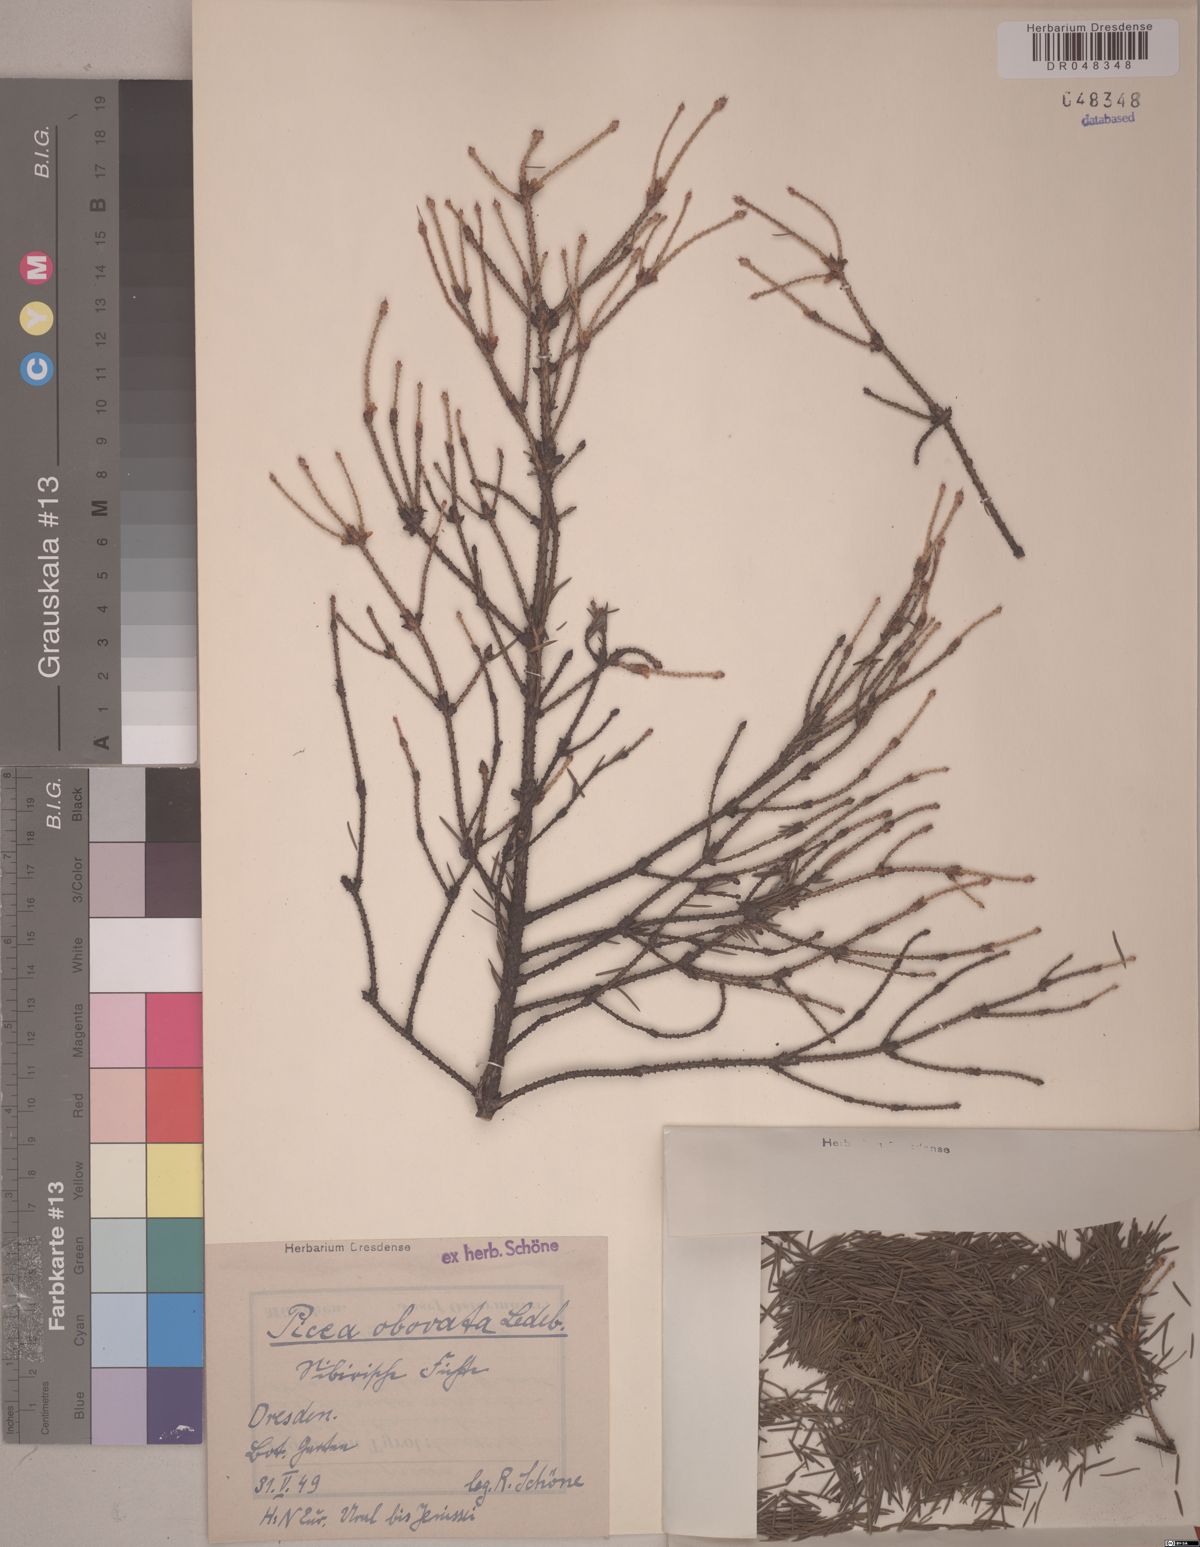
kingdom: Plantae
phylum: Tracheophyta
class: Pinopsida
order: Pinales
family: Pinaceae
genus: Picea
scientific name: Picea obovata
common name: Siberian spruce
